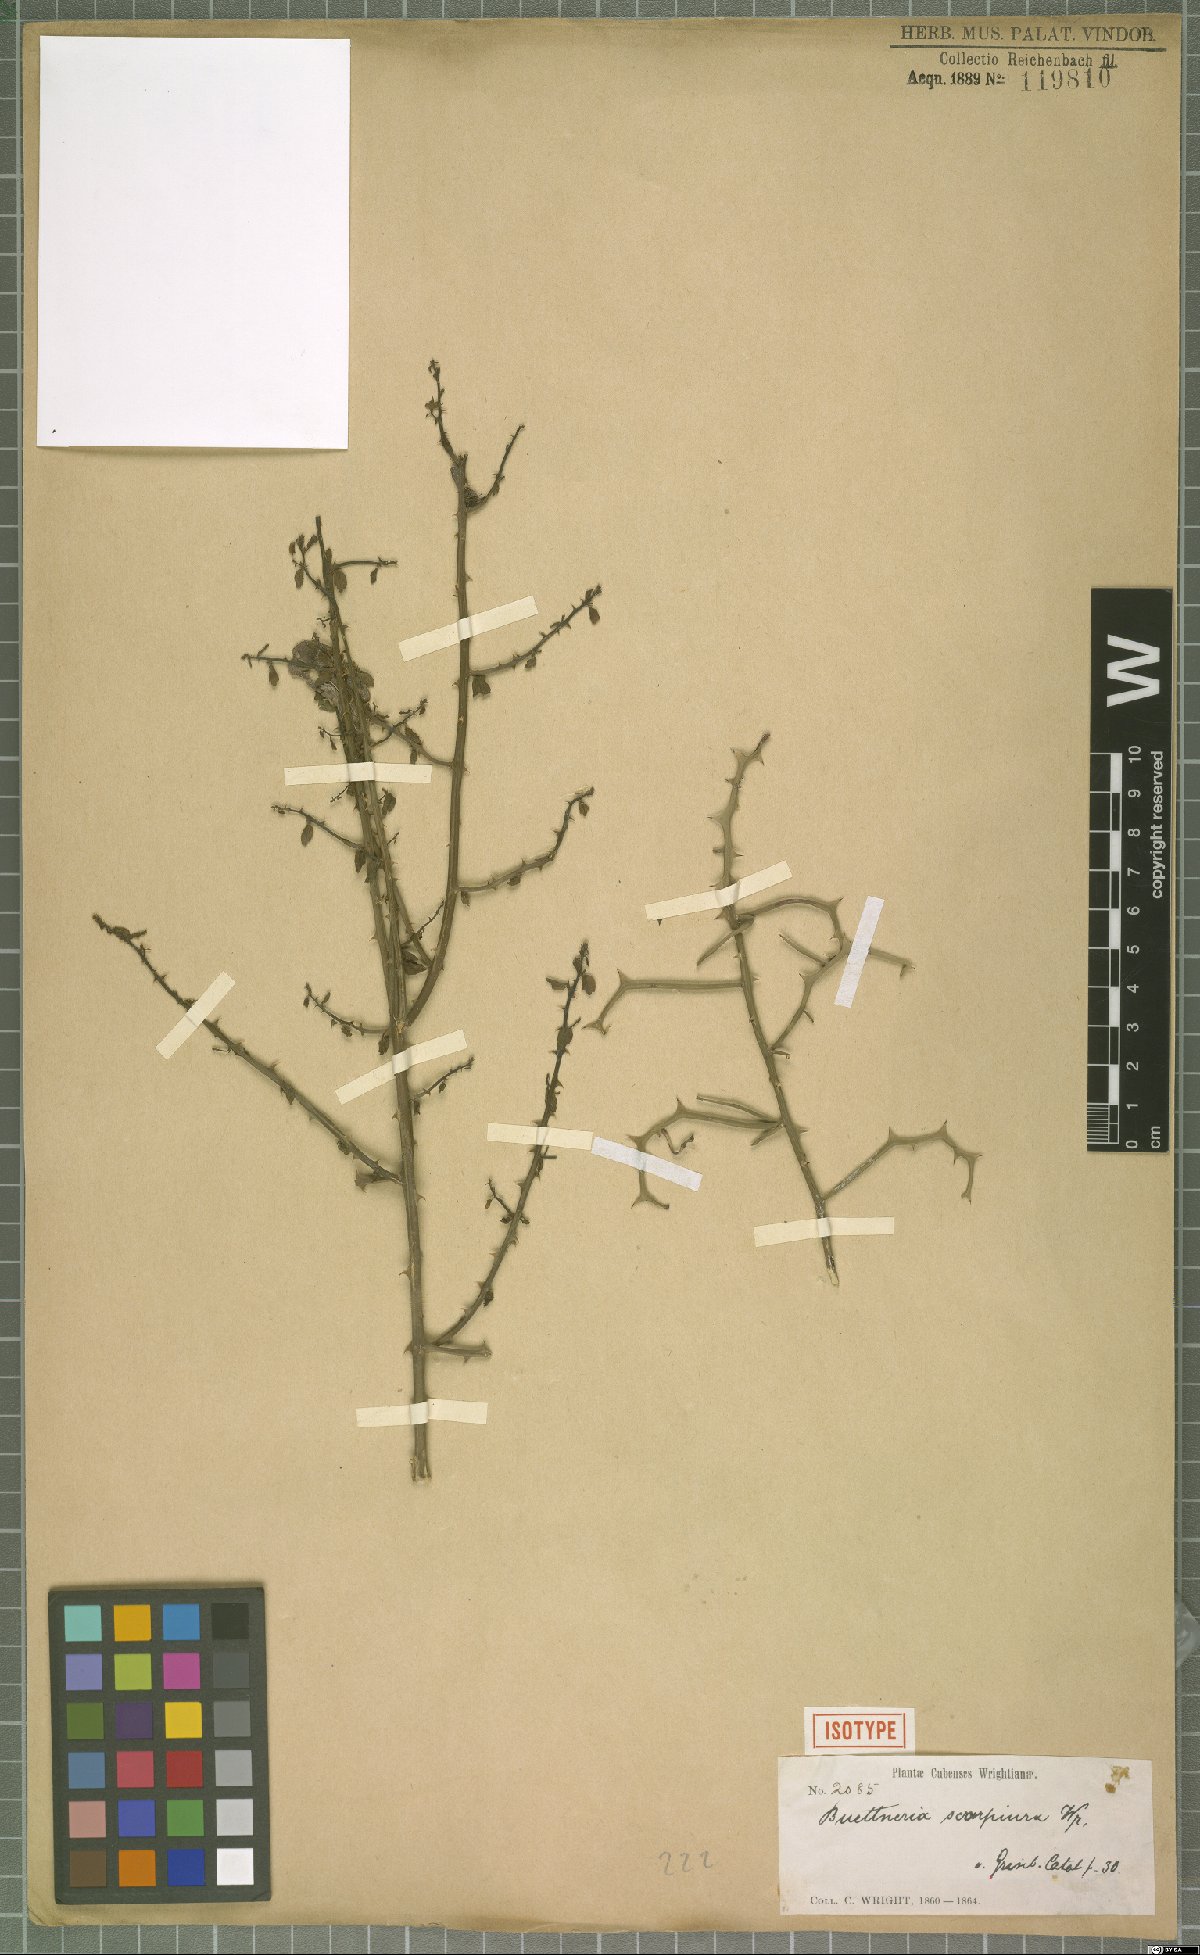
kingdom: Plantae
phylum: Tracheophyta
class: Magnoliopsida
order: Malvales
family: Malvaceae
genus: Byttneria
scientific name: Byttneria microphylla
